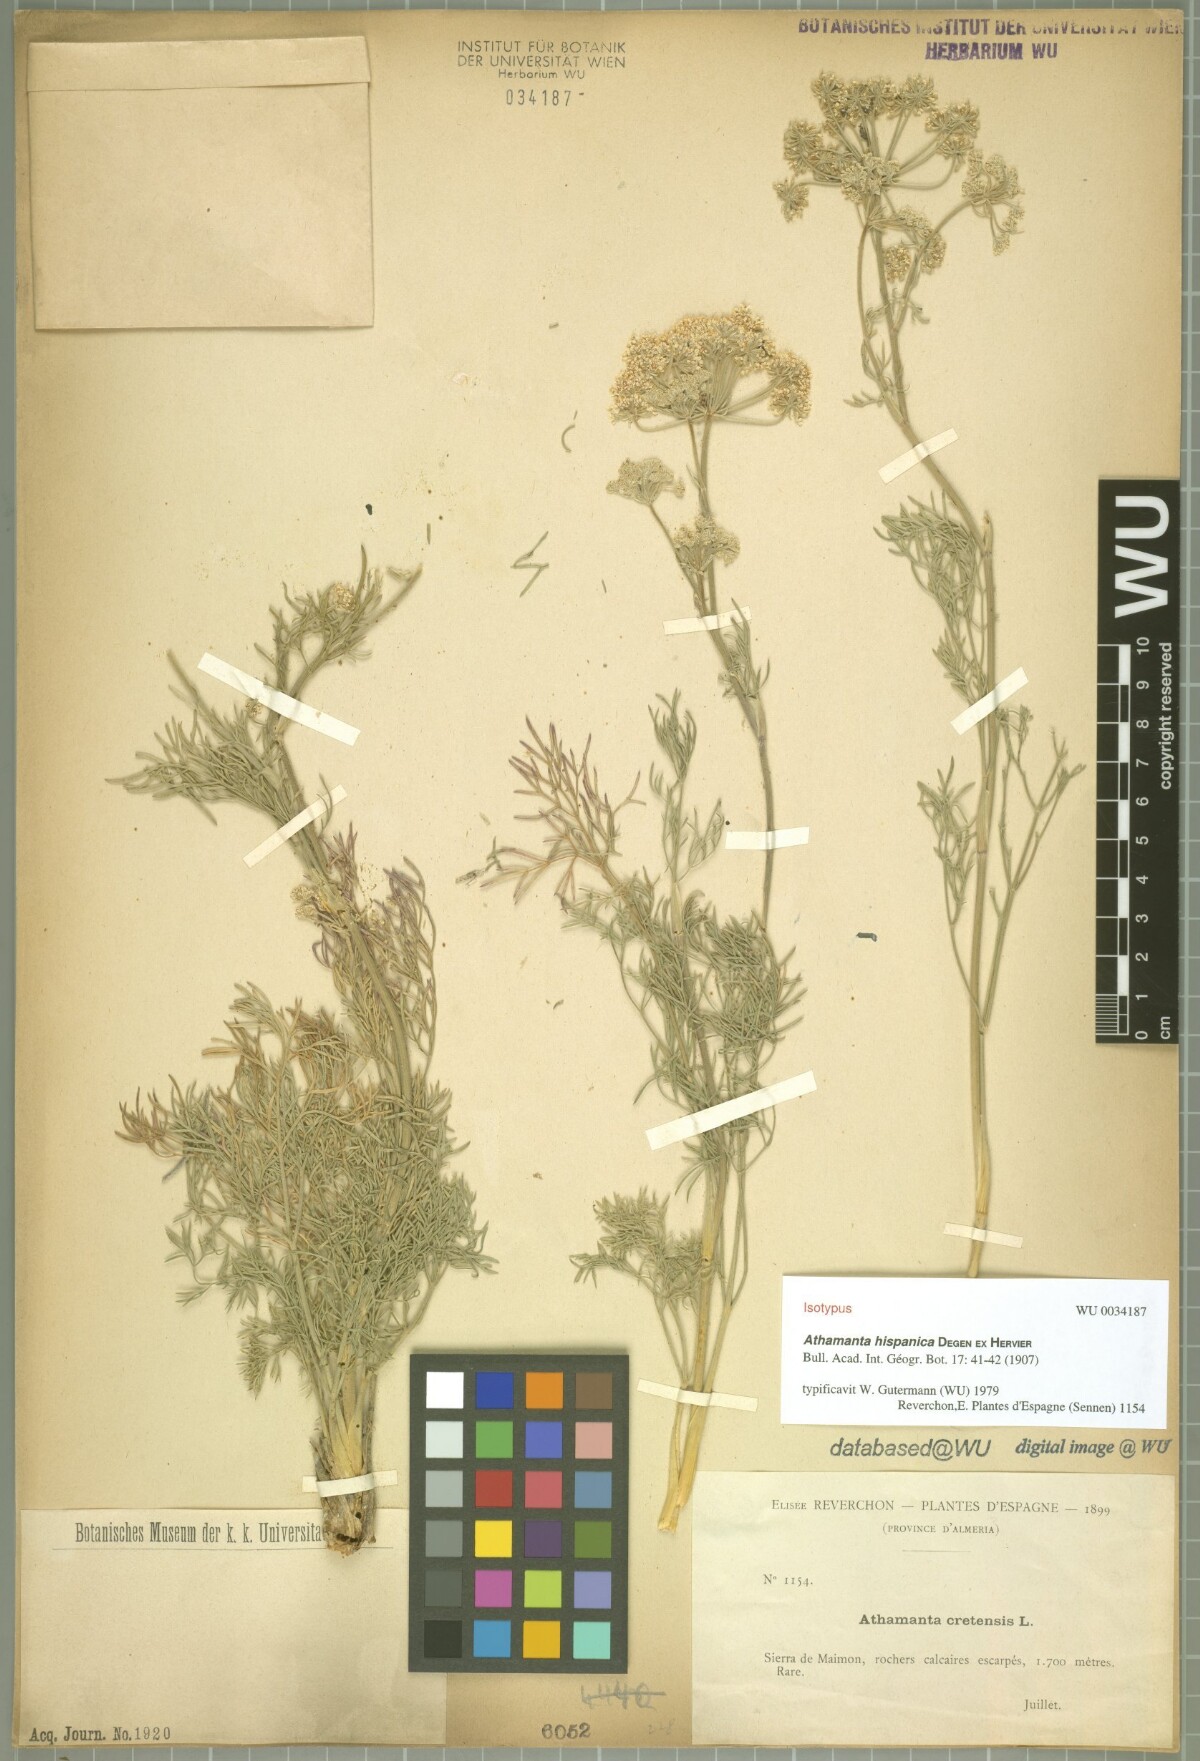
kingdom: Plantae
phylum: Tracheophyta
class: Magnoliopsida
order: Apiales
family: Apiaceae
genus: Athamanta
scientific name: Athamanta hispanica
